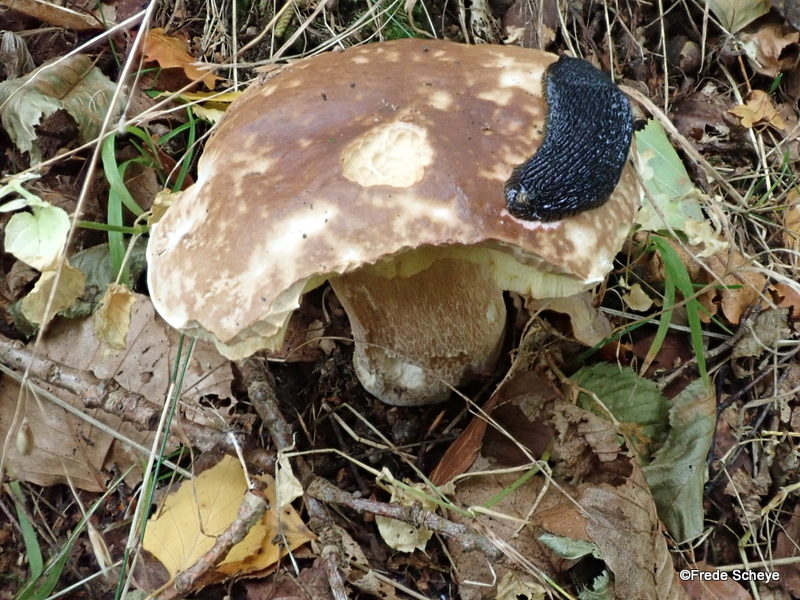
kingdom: Fungi
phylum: Basidiomycota
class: Agaricomycetes
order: Boletales
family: Boletaceae
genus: Boletus
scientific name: Boletus edulis
